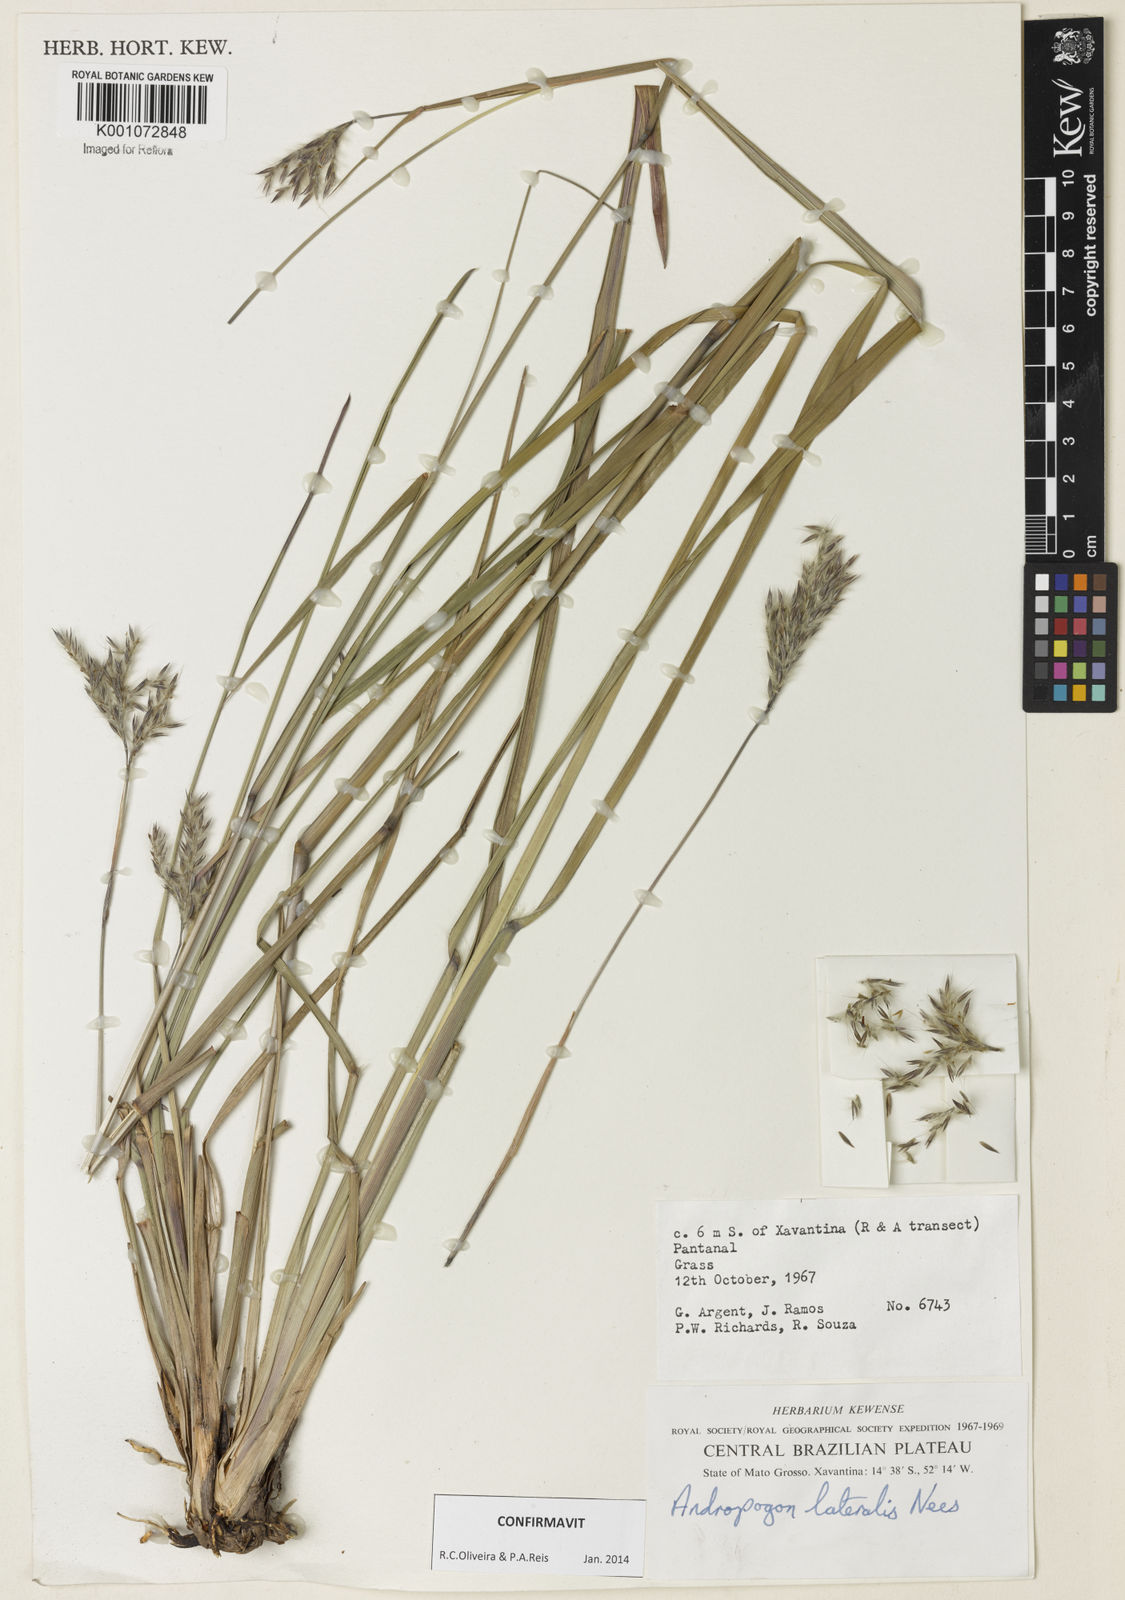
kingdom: Plantae
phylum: Tracheophyta
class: Liliopsida
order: Poales
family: Poaceae
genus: Andropogon
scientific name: Andropogon lateralis
